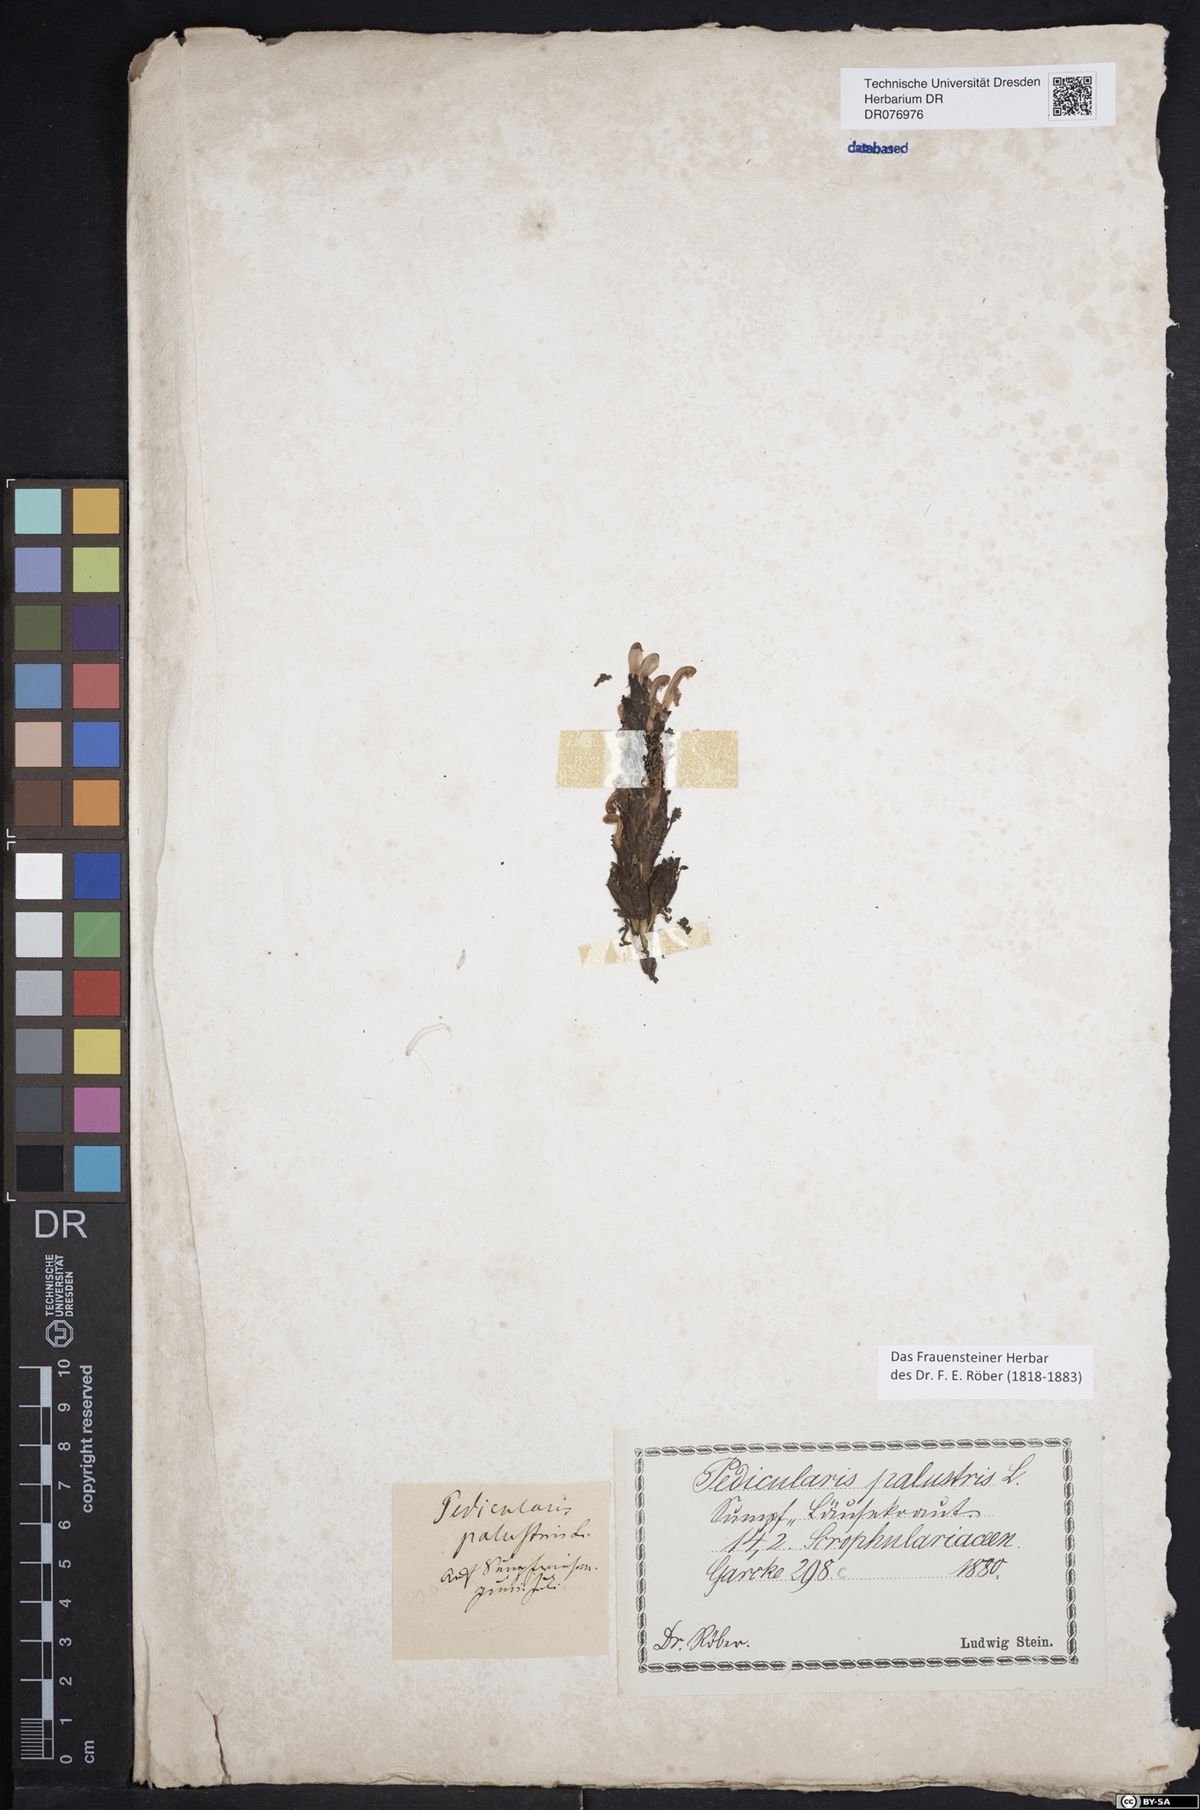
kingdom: Plantae
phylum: Tracheophyta
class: Magnoliopsida
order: Lamiales
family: Orobanchaceae
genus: Pedicularis
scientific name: Pedicularis palustris
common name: Marsh lousewort
